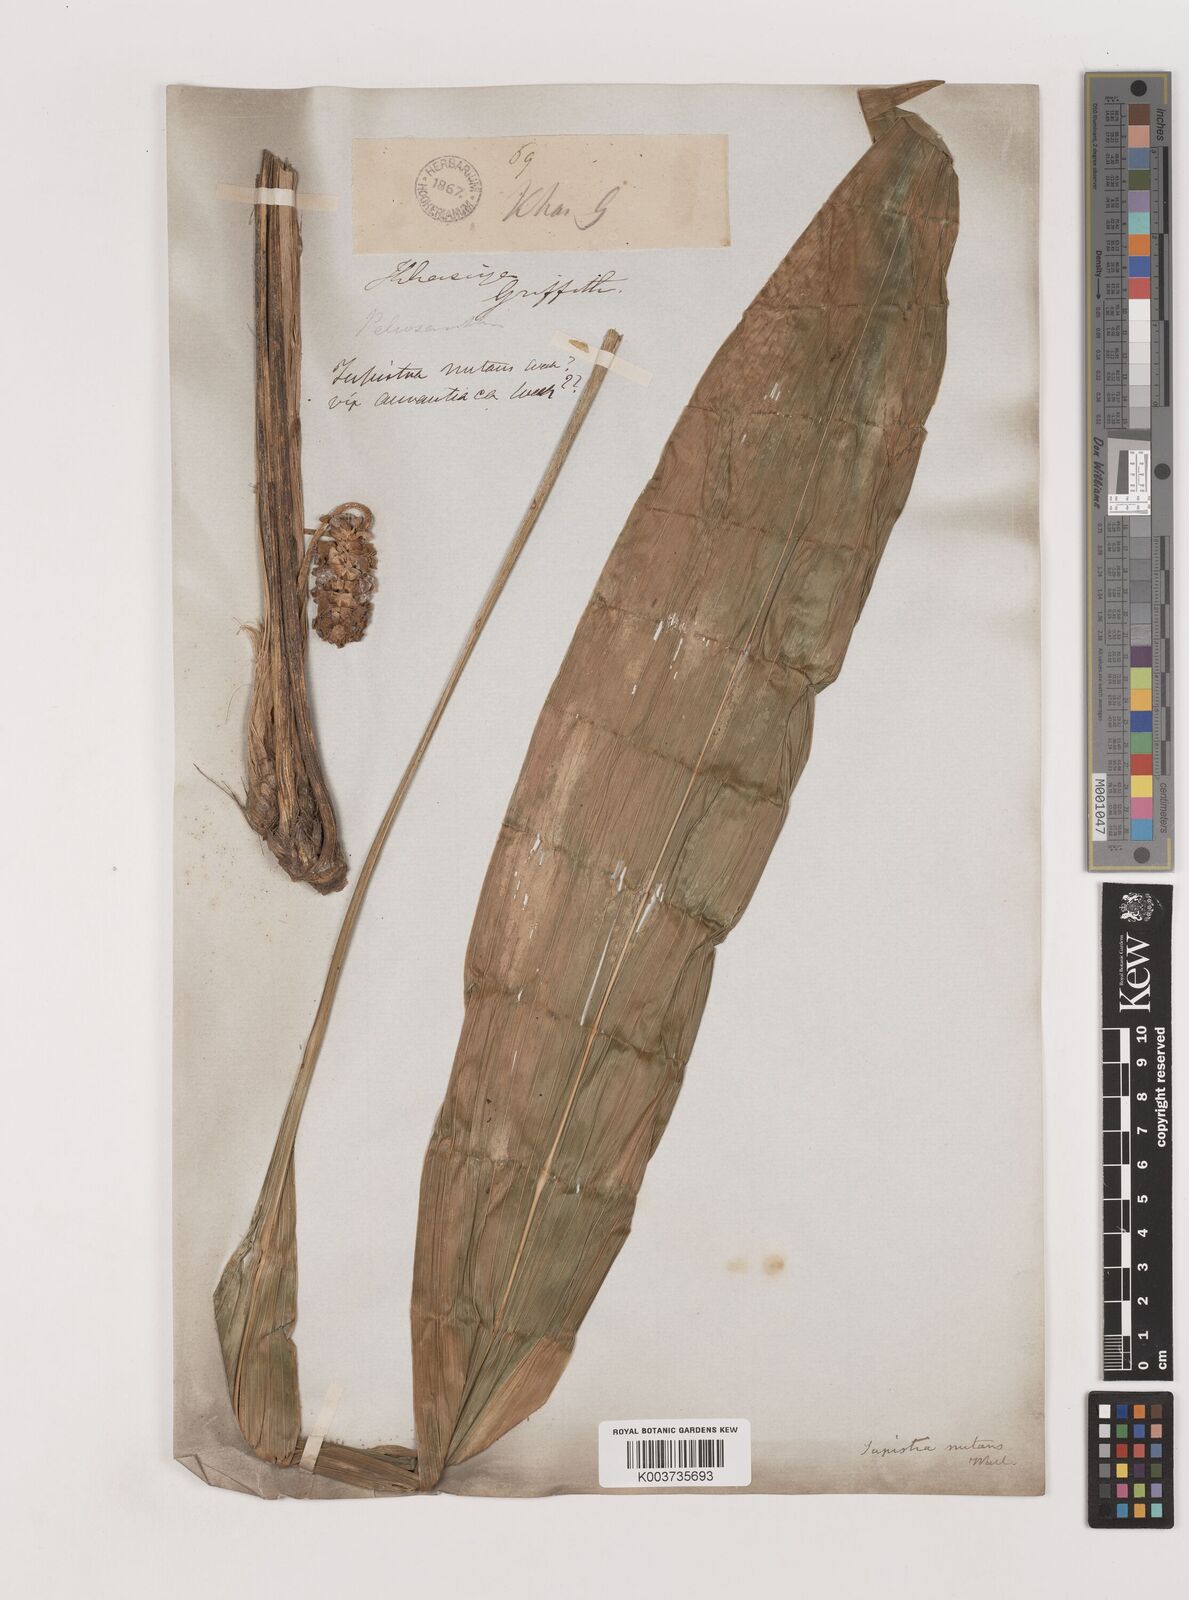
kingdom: Plantae
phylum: Tracheophyta
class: Liliopsida
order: Asparagales
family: Asparagaceae
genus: Tupistra
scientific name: Tupistra nutans
